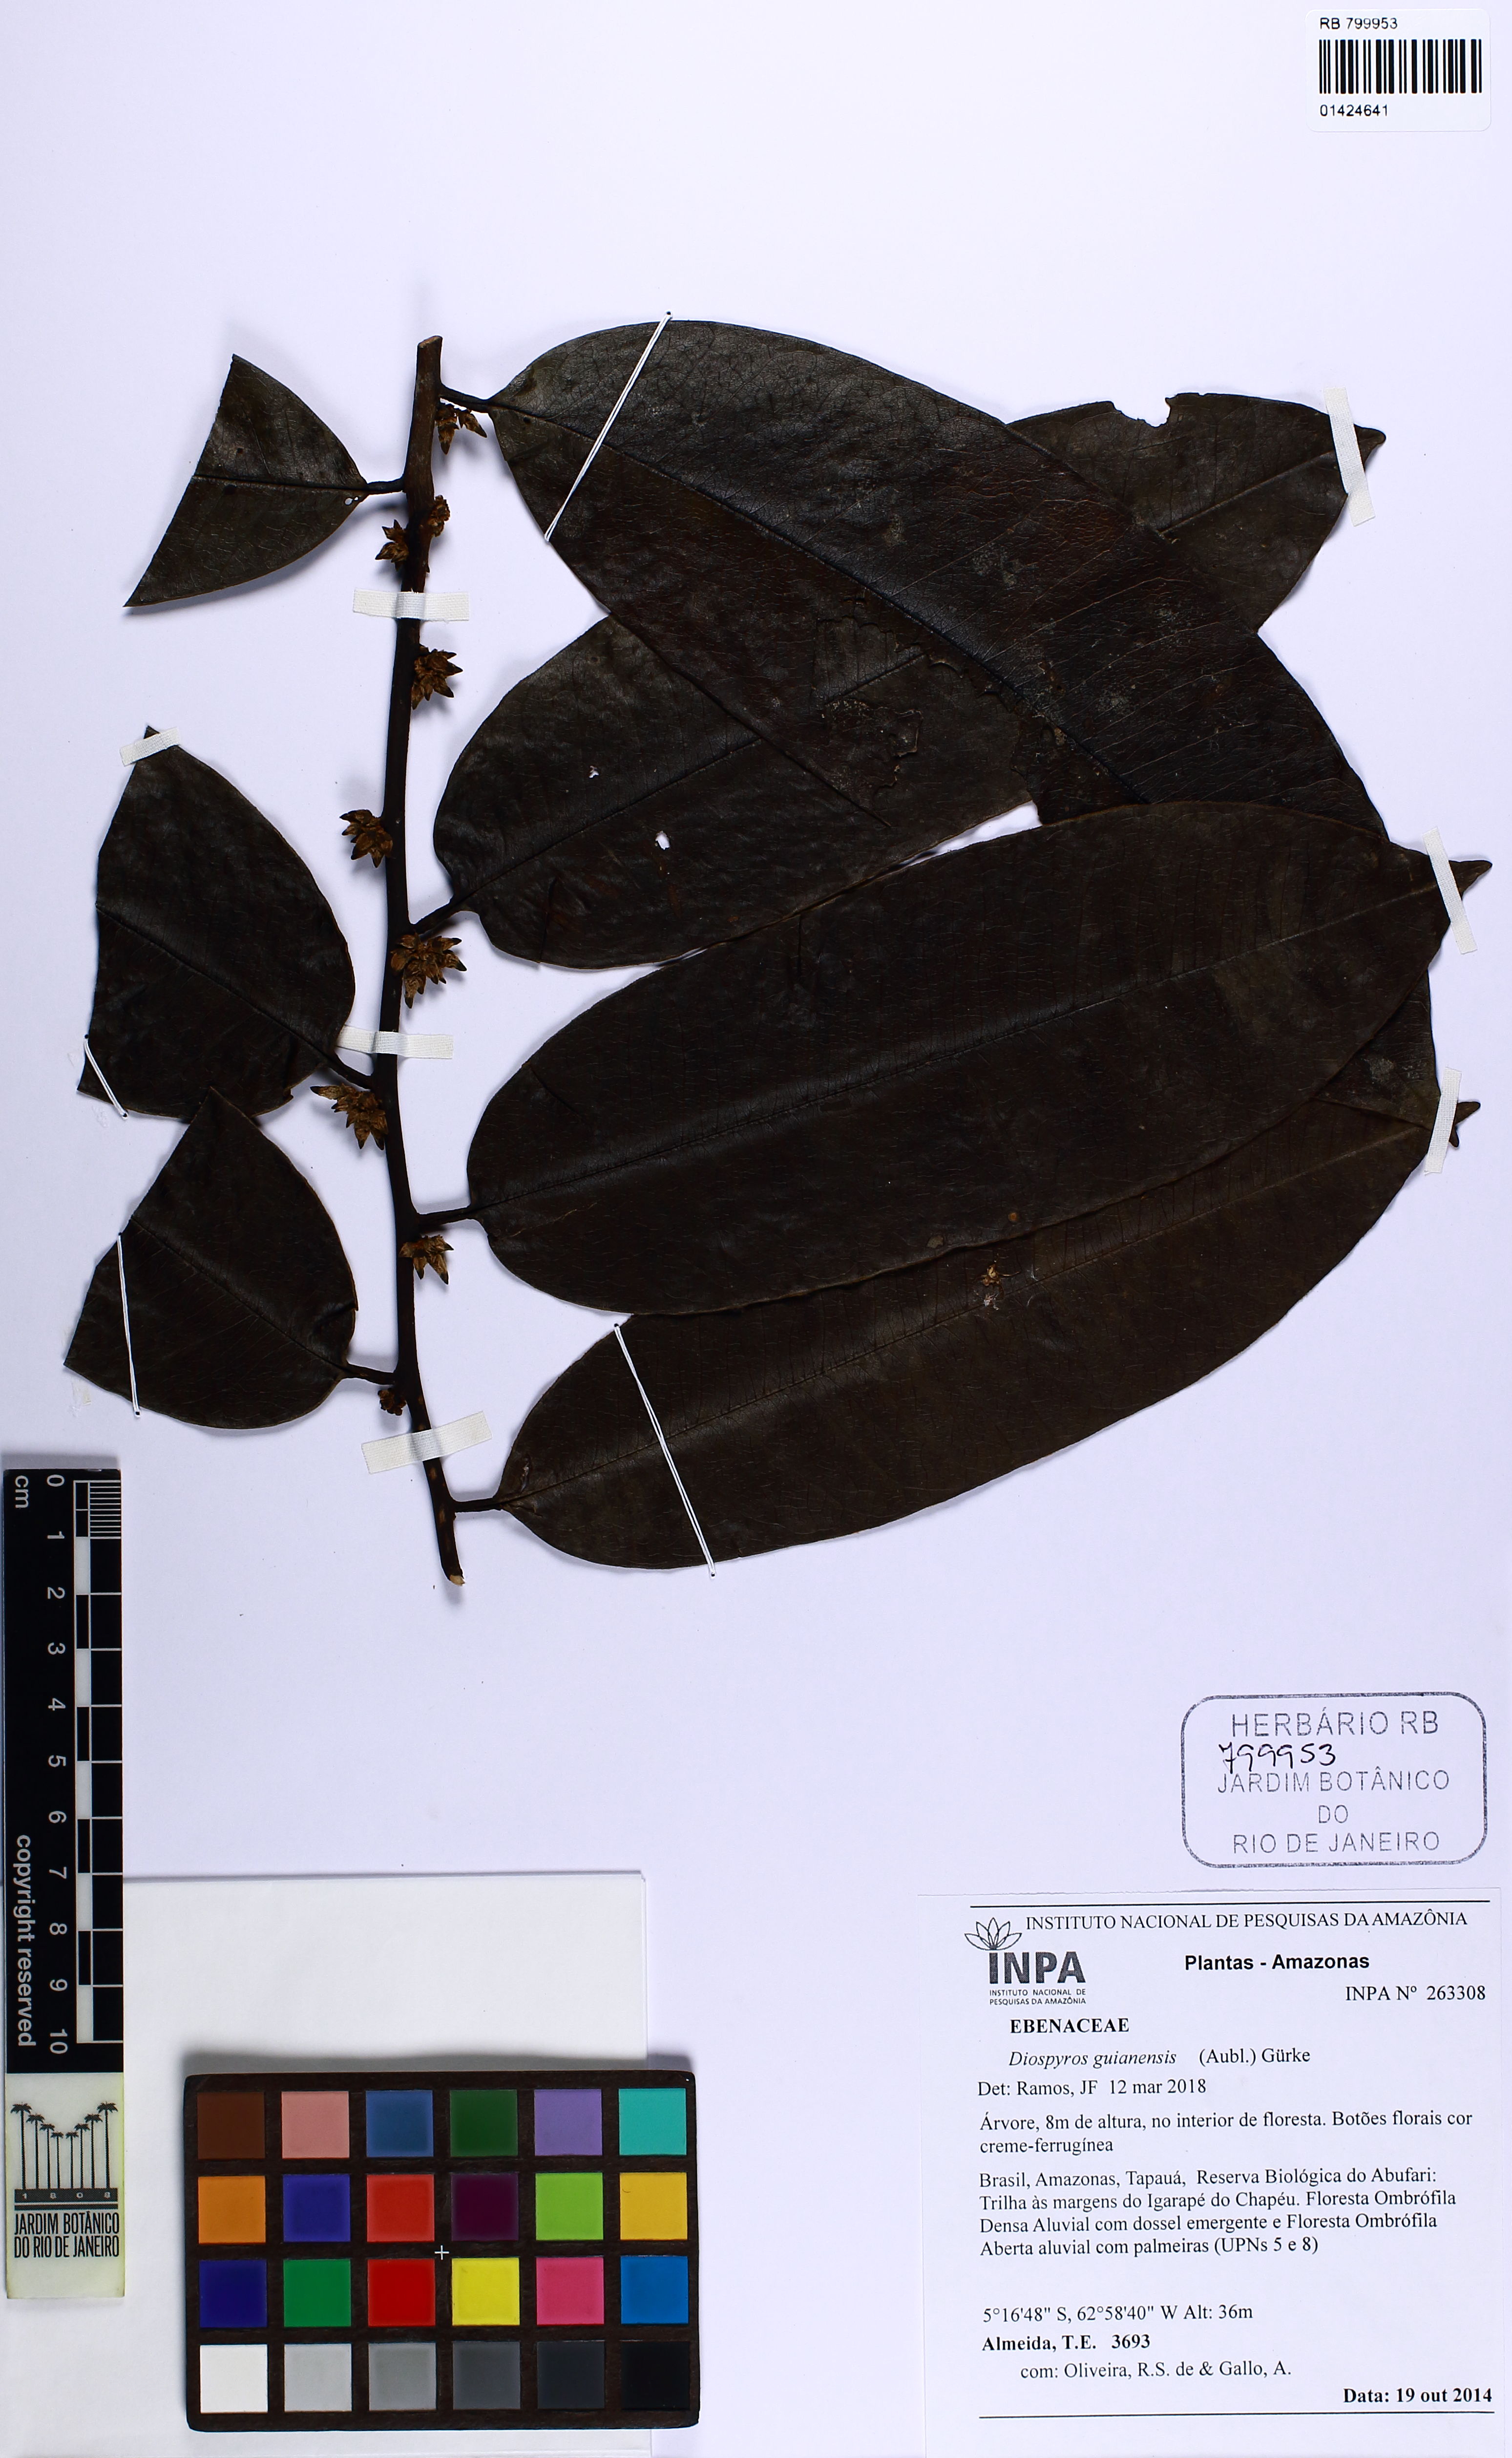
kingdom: Plantae
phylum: Tracheophyta
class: Magnoliopsida
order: Ericales
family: Ebenaceae
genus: Diospyros
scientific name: Diospyros guianensis
